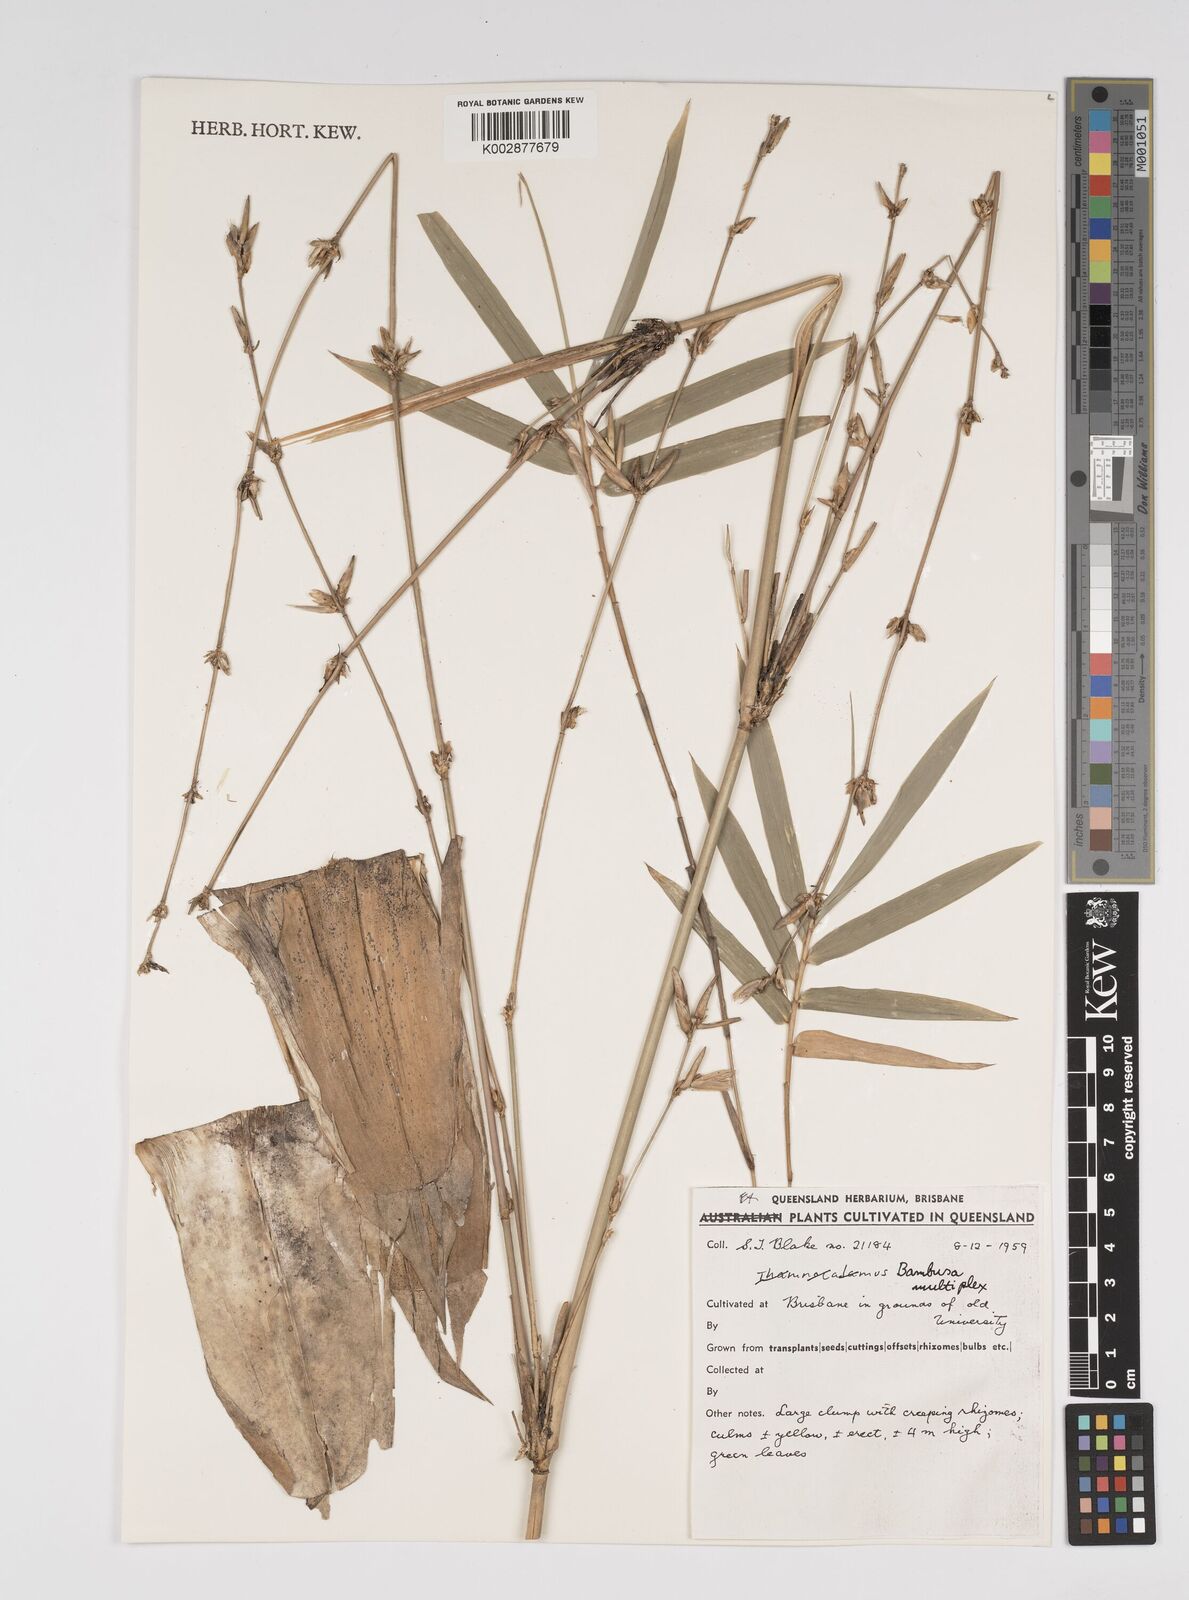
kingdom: Plantae
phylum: Tracheophyta
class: Liliopsida
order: Poales
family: Poaceae
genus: Bambusa
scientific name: Bambusa
